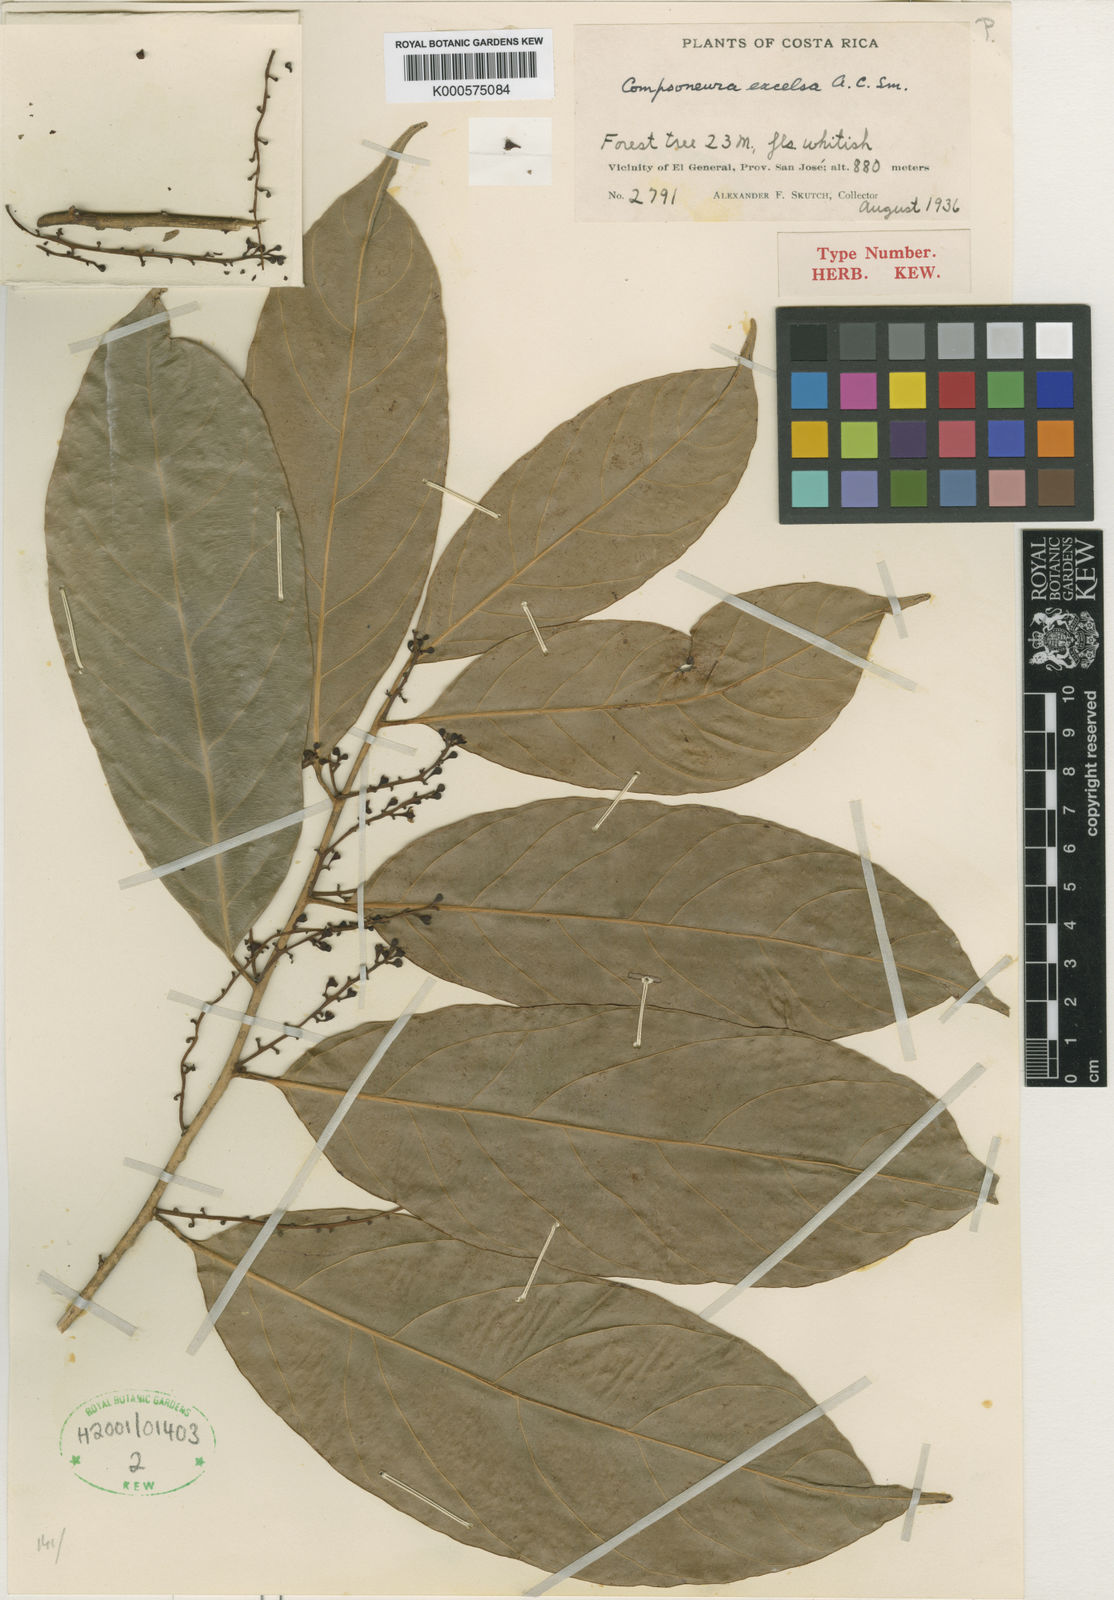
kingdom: Plantae
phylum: Tracheophyta
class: Magnoliopsida
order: Magnoliales
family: Myristicaceae
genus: Compsoneura
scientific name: Compsoneura excelsa
